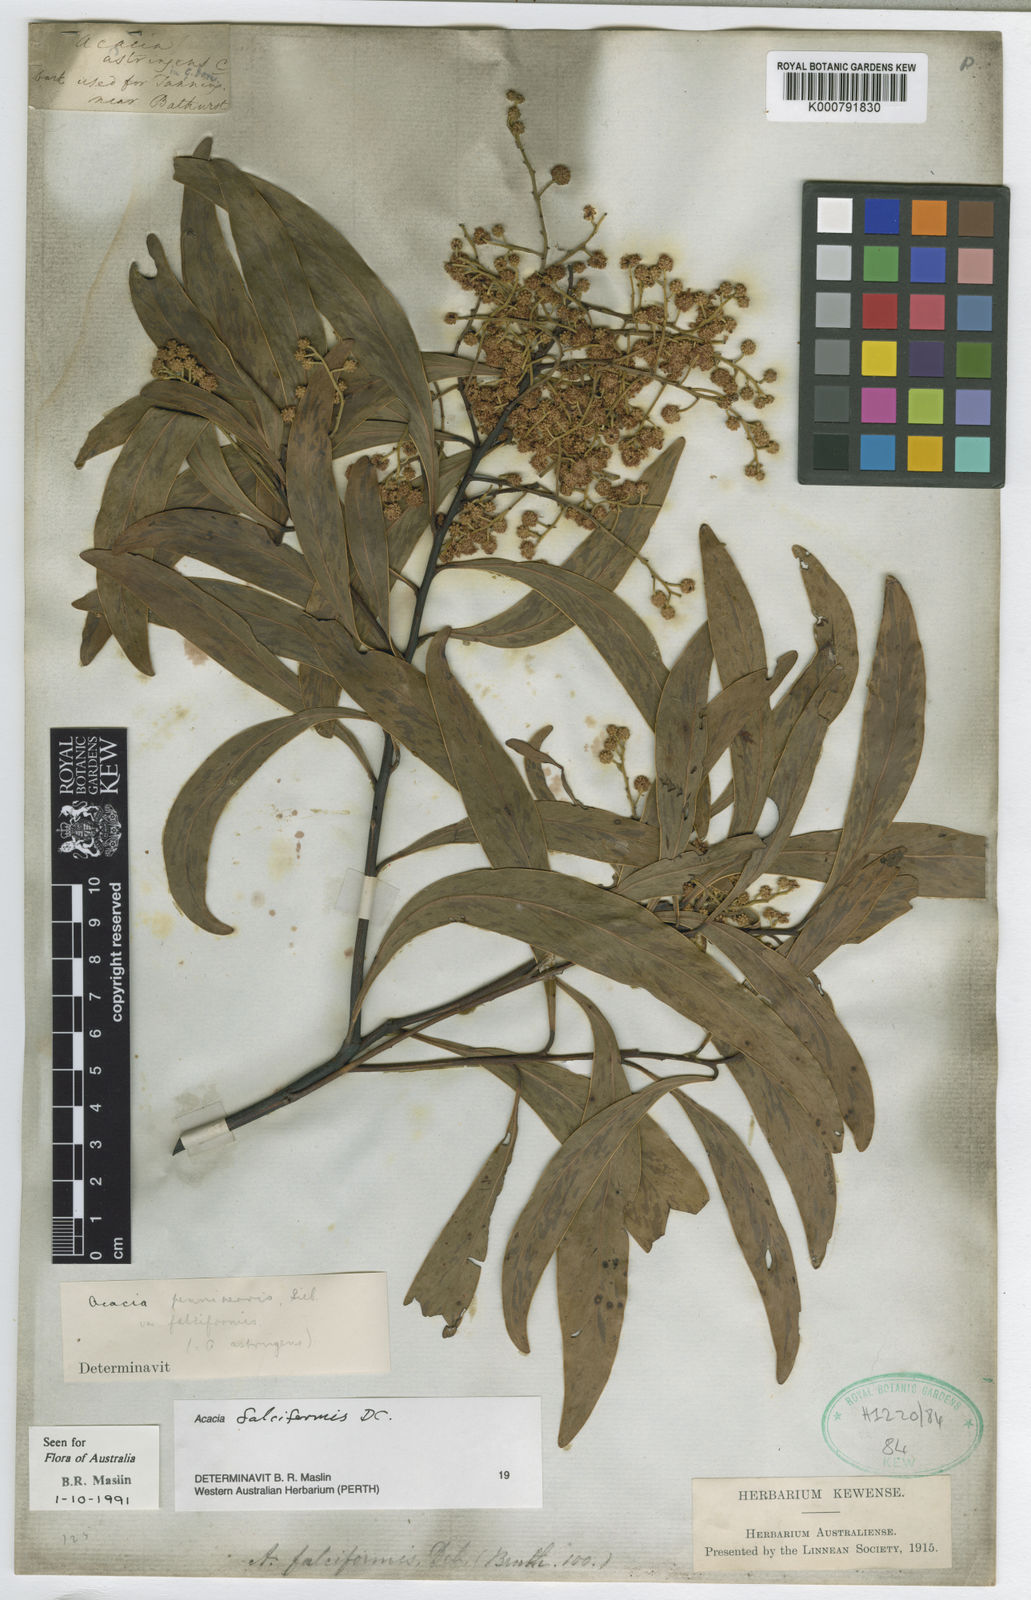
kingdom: Plantae
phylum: Tracheophyta
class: Magnoliopsida
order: Fabales
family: Fabaceae
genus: Acacia
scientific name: Acacia falciformis
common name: Tanning wattle
